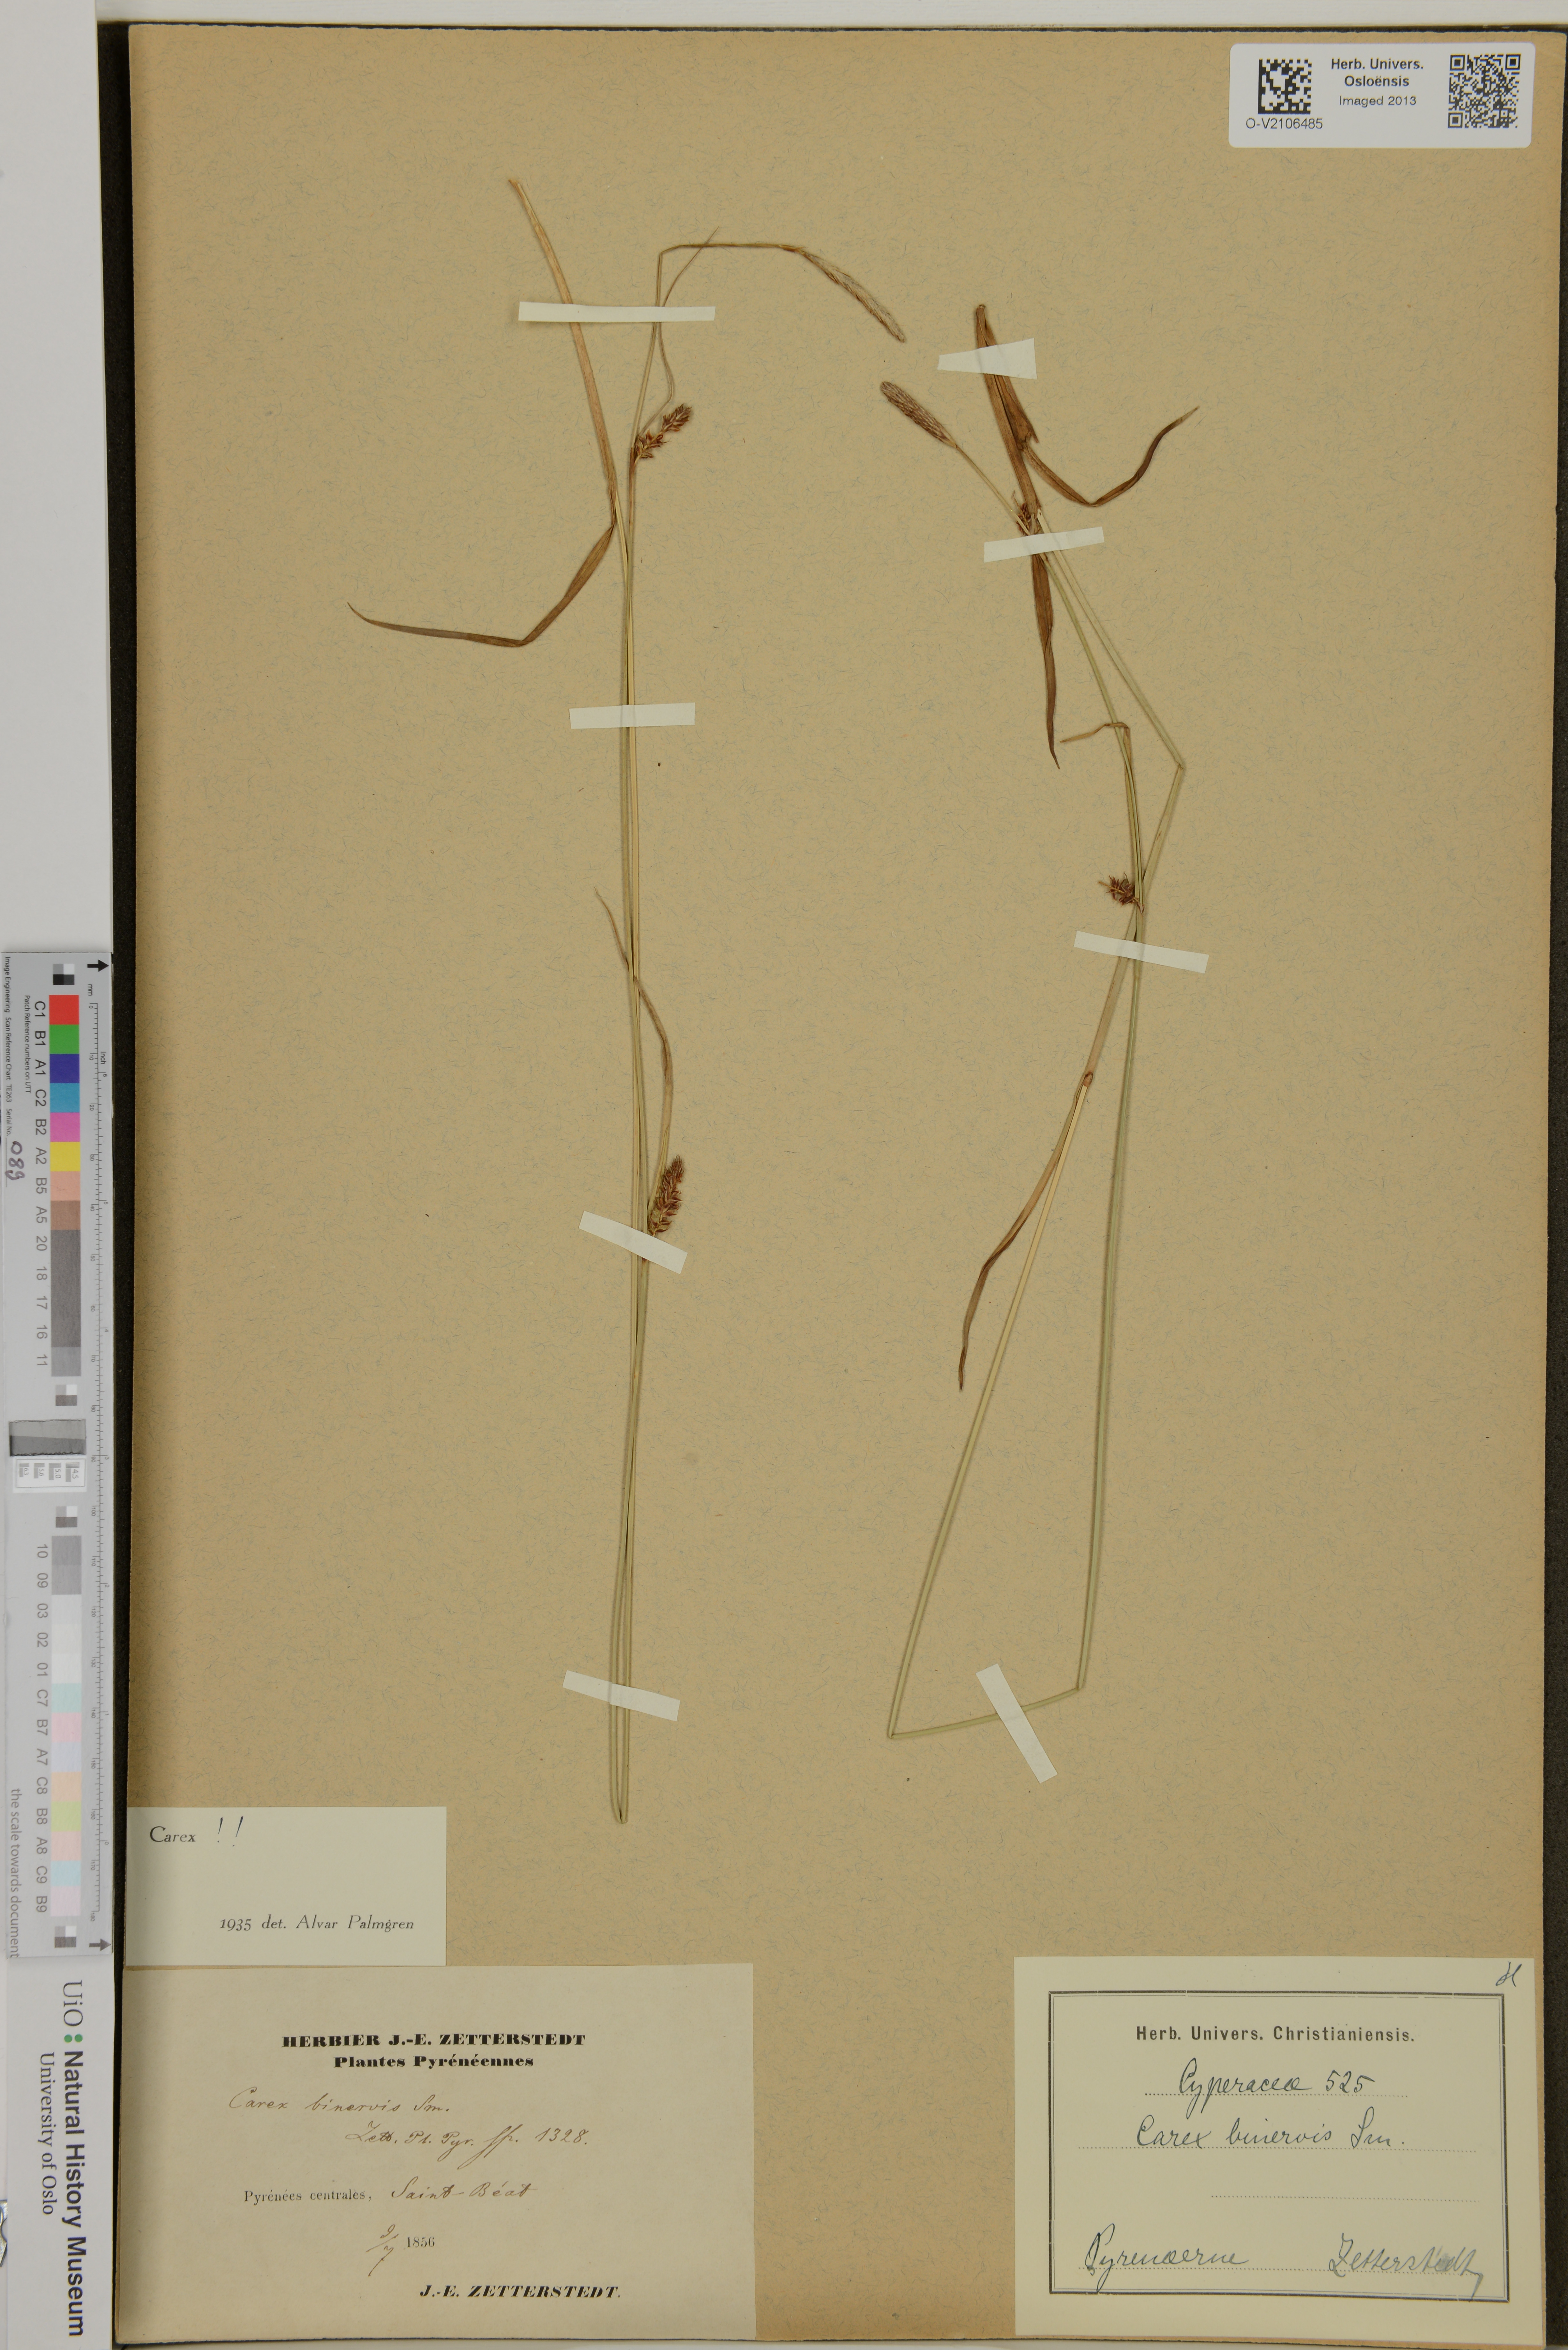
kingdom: Plantae
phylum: Tracheophyta
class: Liliopsida
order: Poales
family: Cyperaceae
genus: Carex
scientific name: Carex
